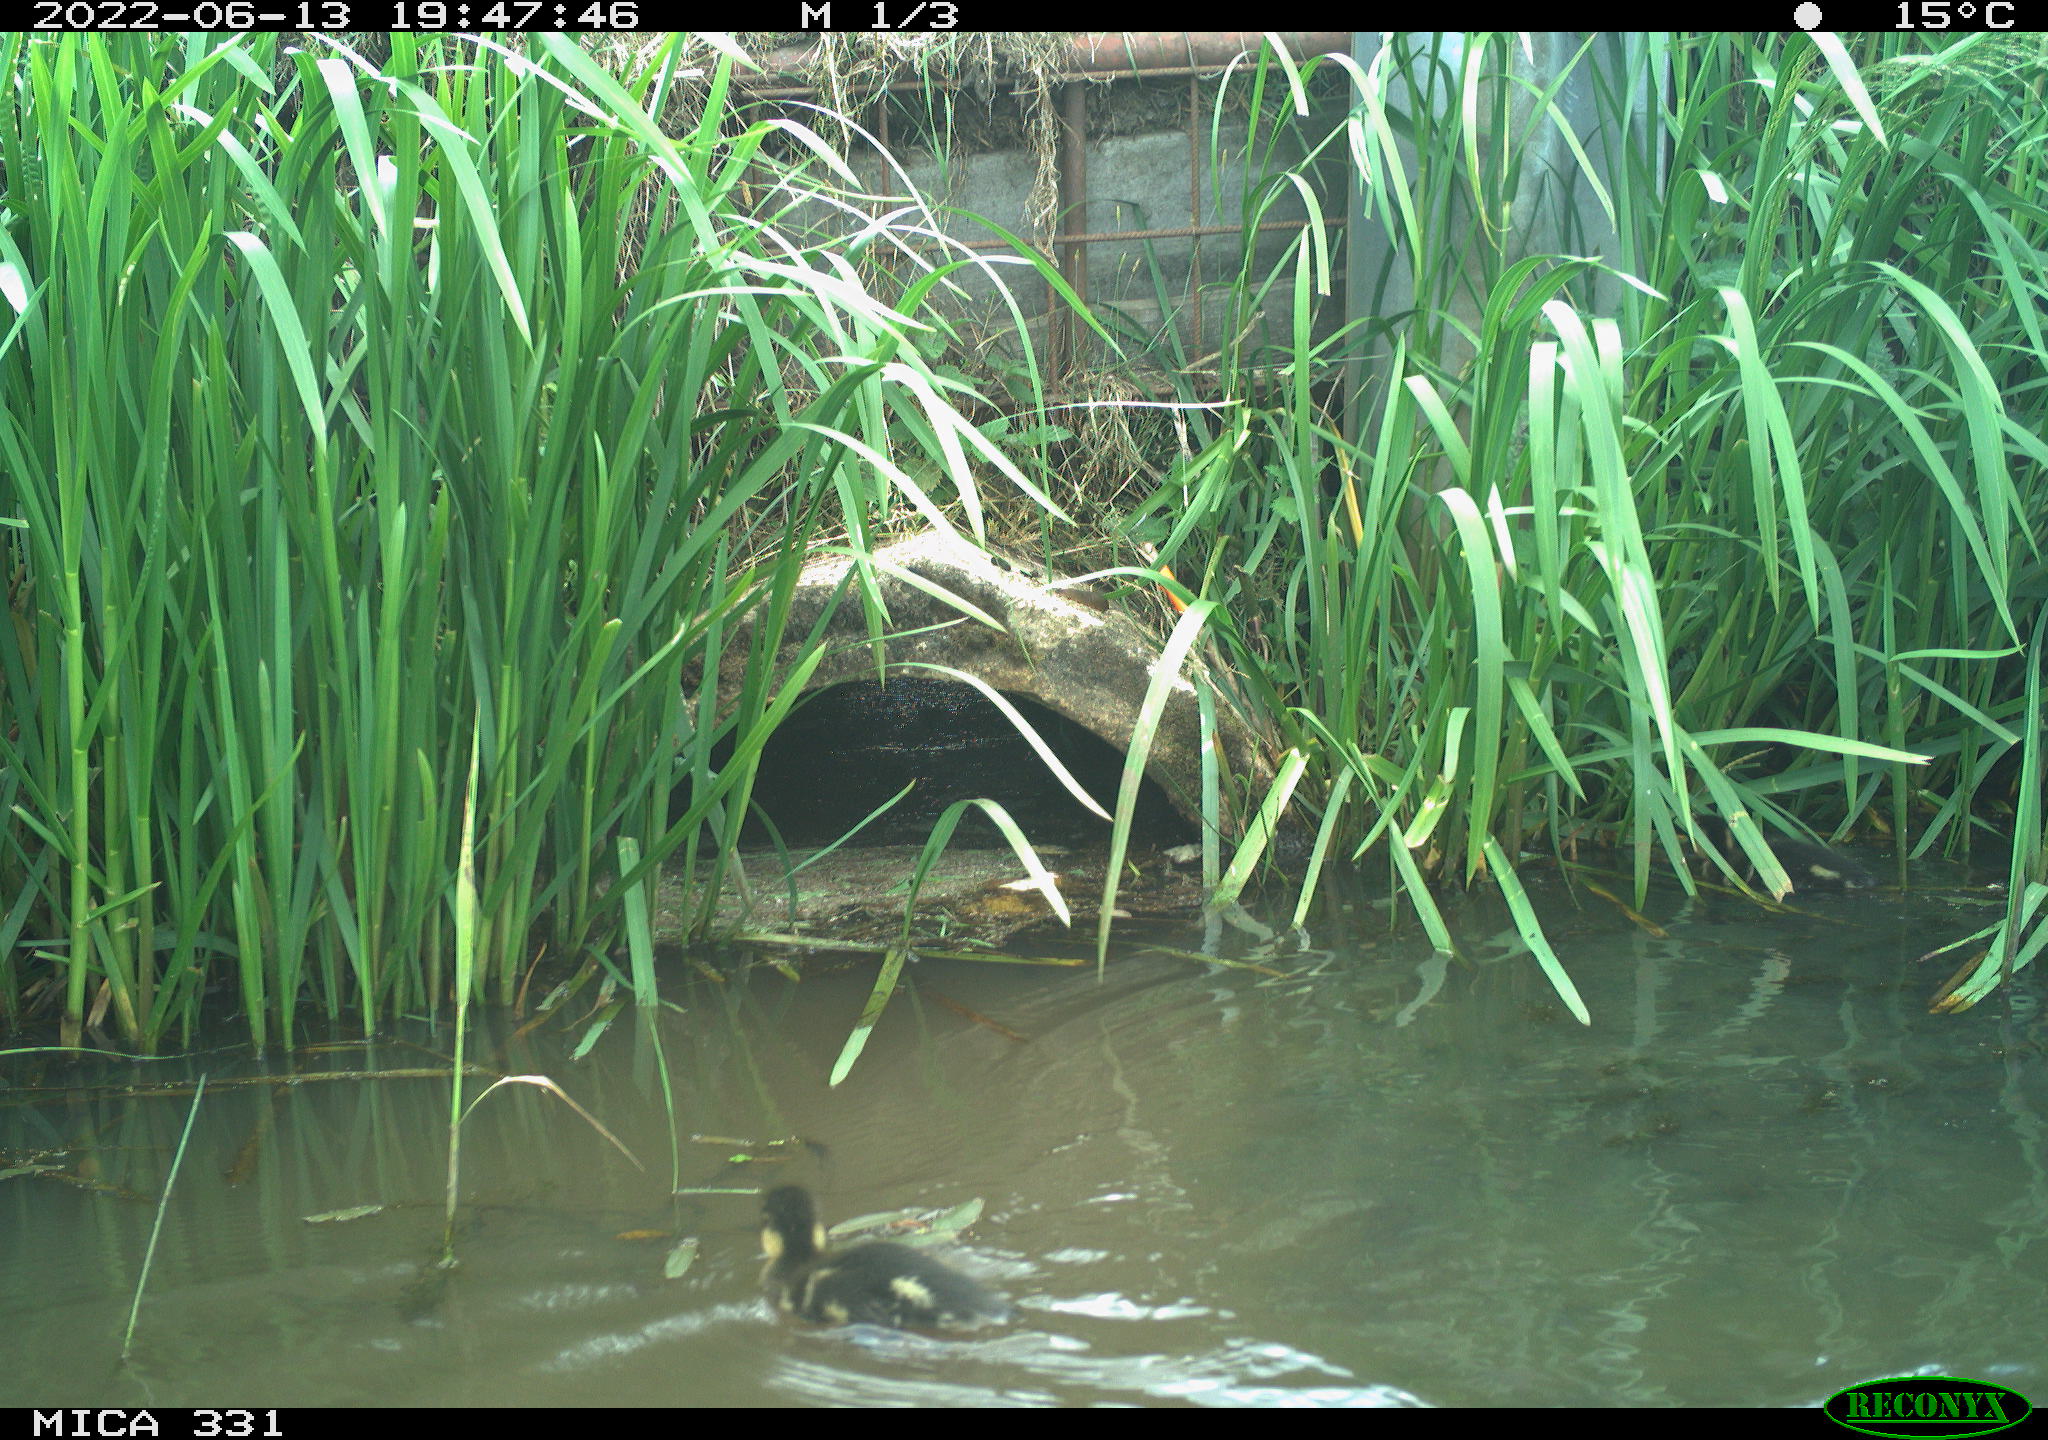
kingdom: Animalia
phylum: Chordata
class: Aves
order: Anseriformes
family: Anatidae
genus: Anas
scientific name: Anas platyrhynchos
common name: Mallard
